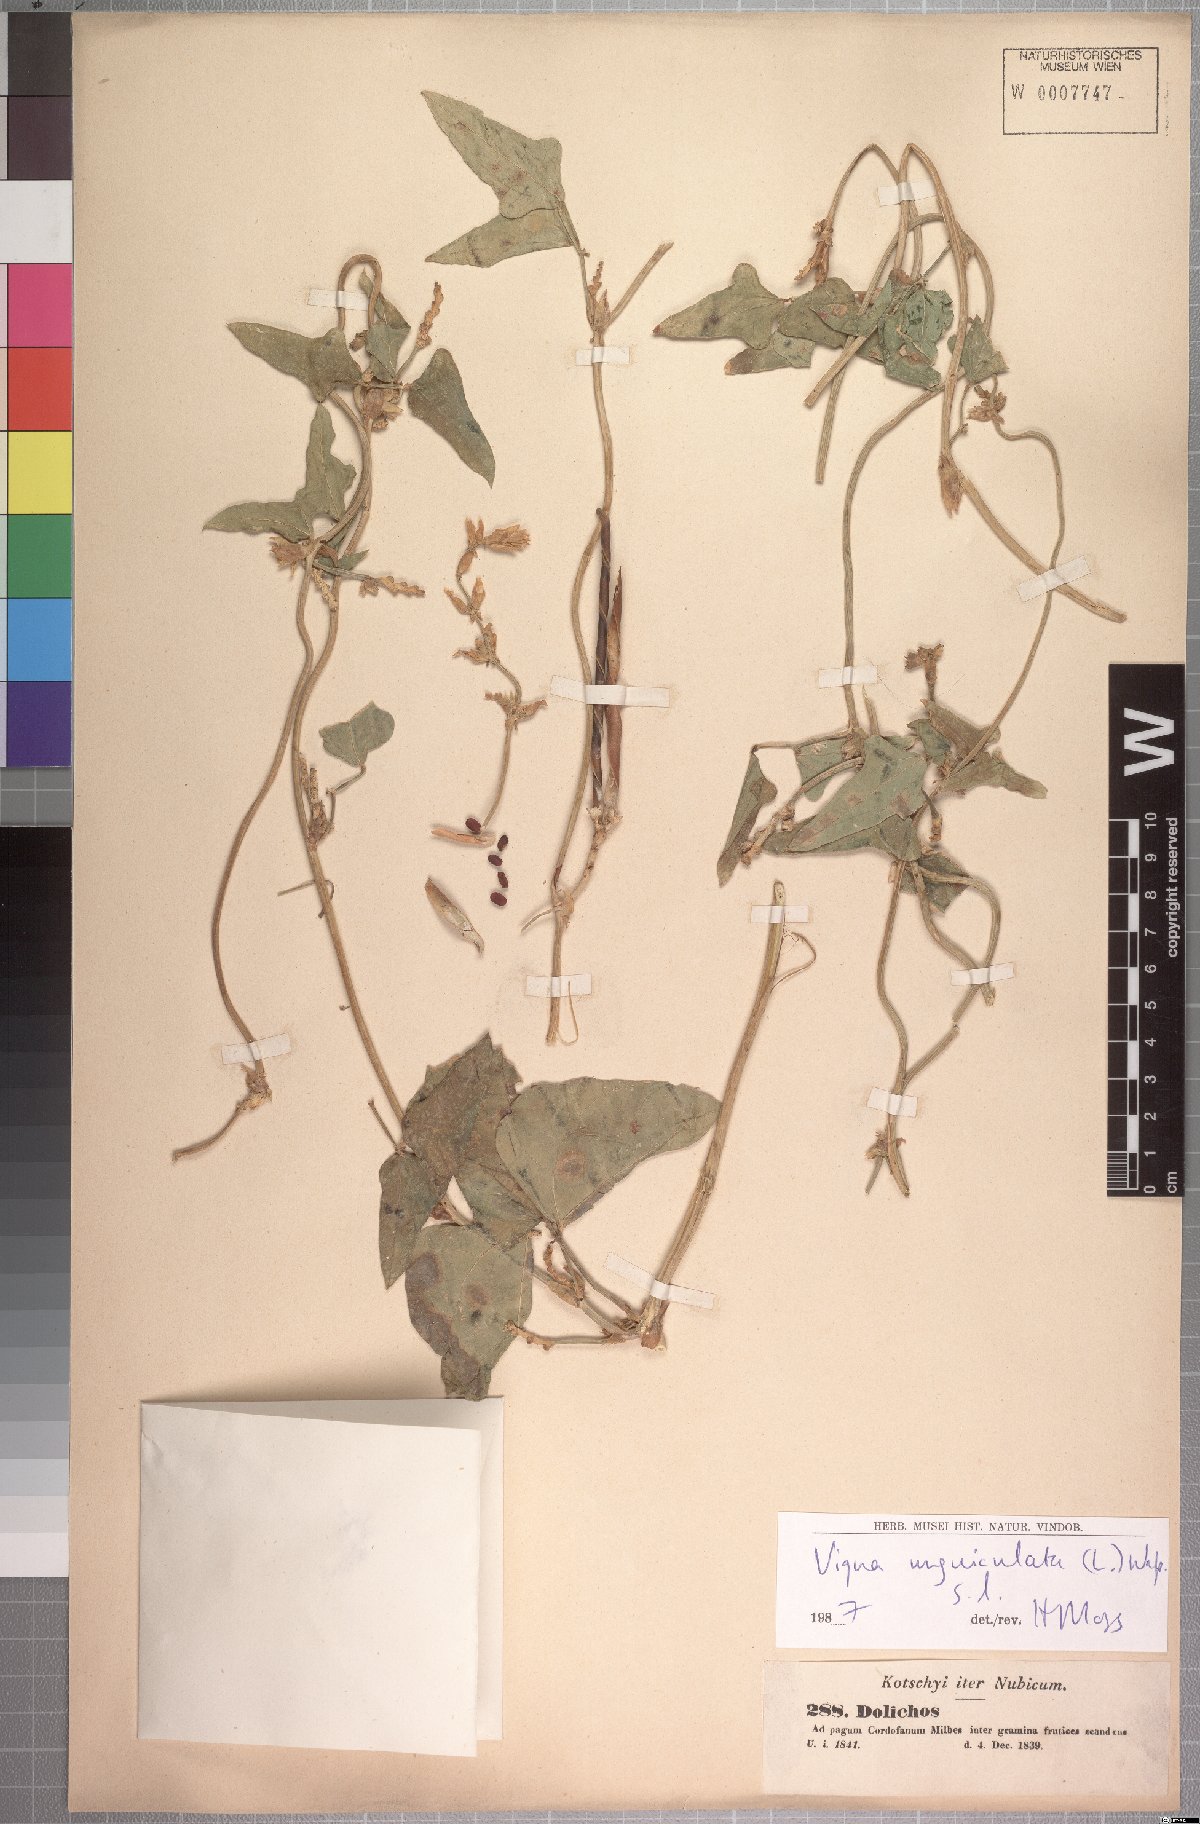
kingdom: Plantae
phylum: Tracheophyta
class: Magnoliopsida
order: Fabales
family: Fabaceae
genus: Vigna
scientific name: Vigna unguiculata
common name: Cowpea
